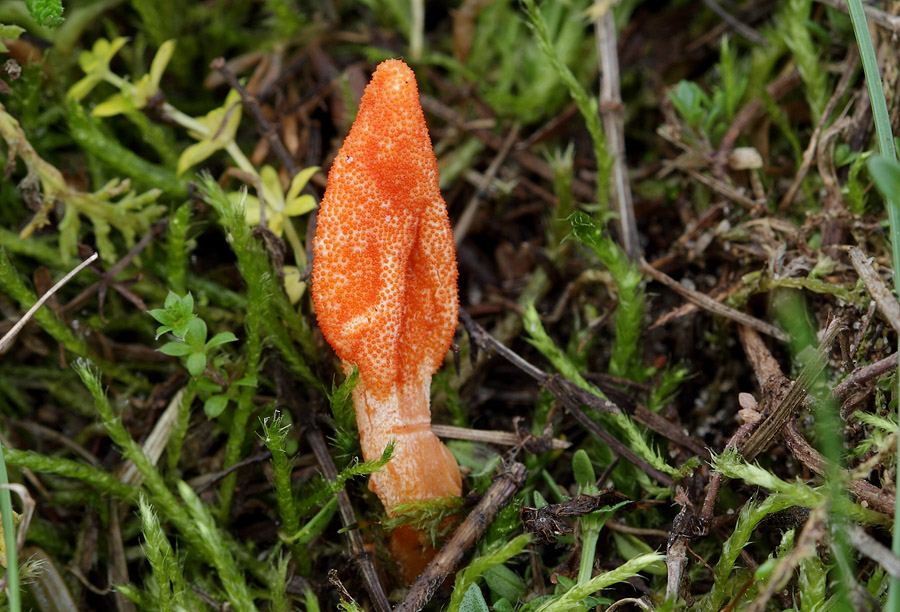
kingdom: Fungi
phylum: Ascomycota
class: Sordariomycetes
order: Hypocreales
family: Cordycipitaceae
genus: Cordyceps
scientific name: Cordyceps militaris
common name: puppe-snyltekølle
